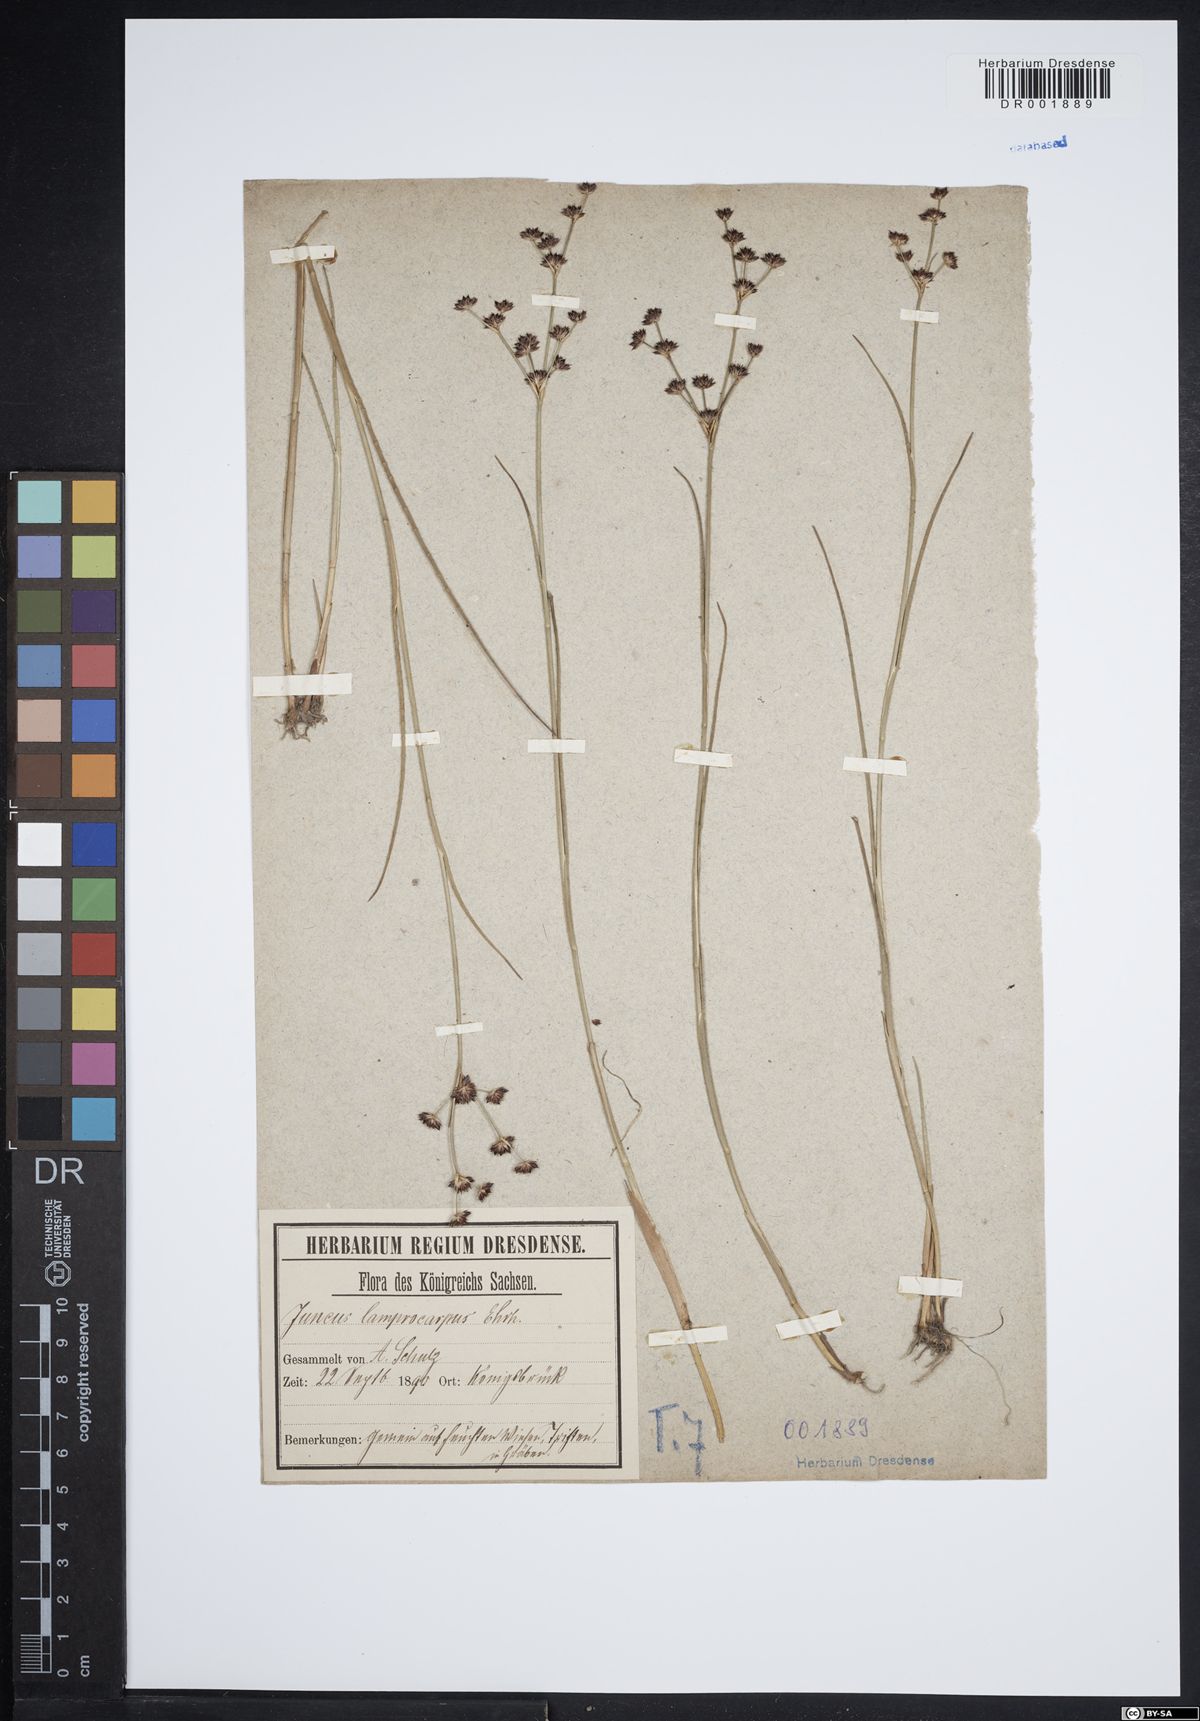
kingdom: Plantae
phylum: Tracheophyta
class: Liliopsida
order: Poales
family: Juncaceae
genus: Juncus
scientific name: Juncus articulatus
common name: Jointed rush
